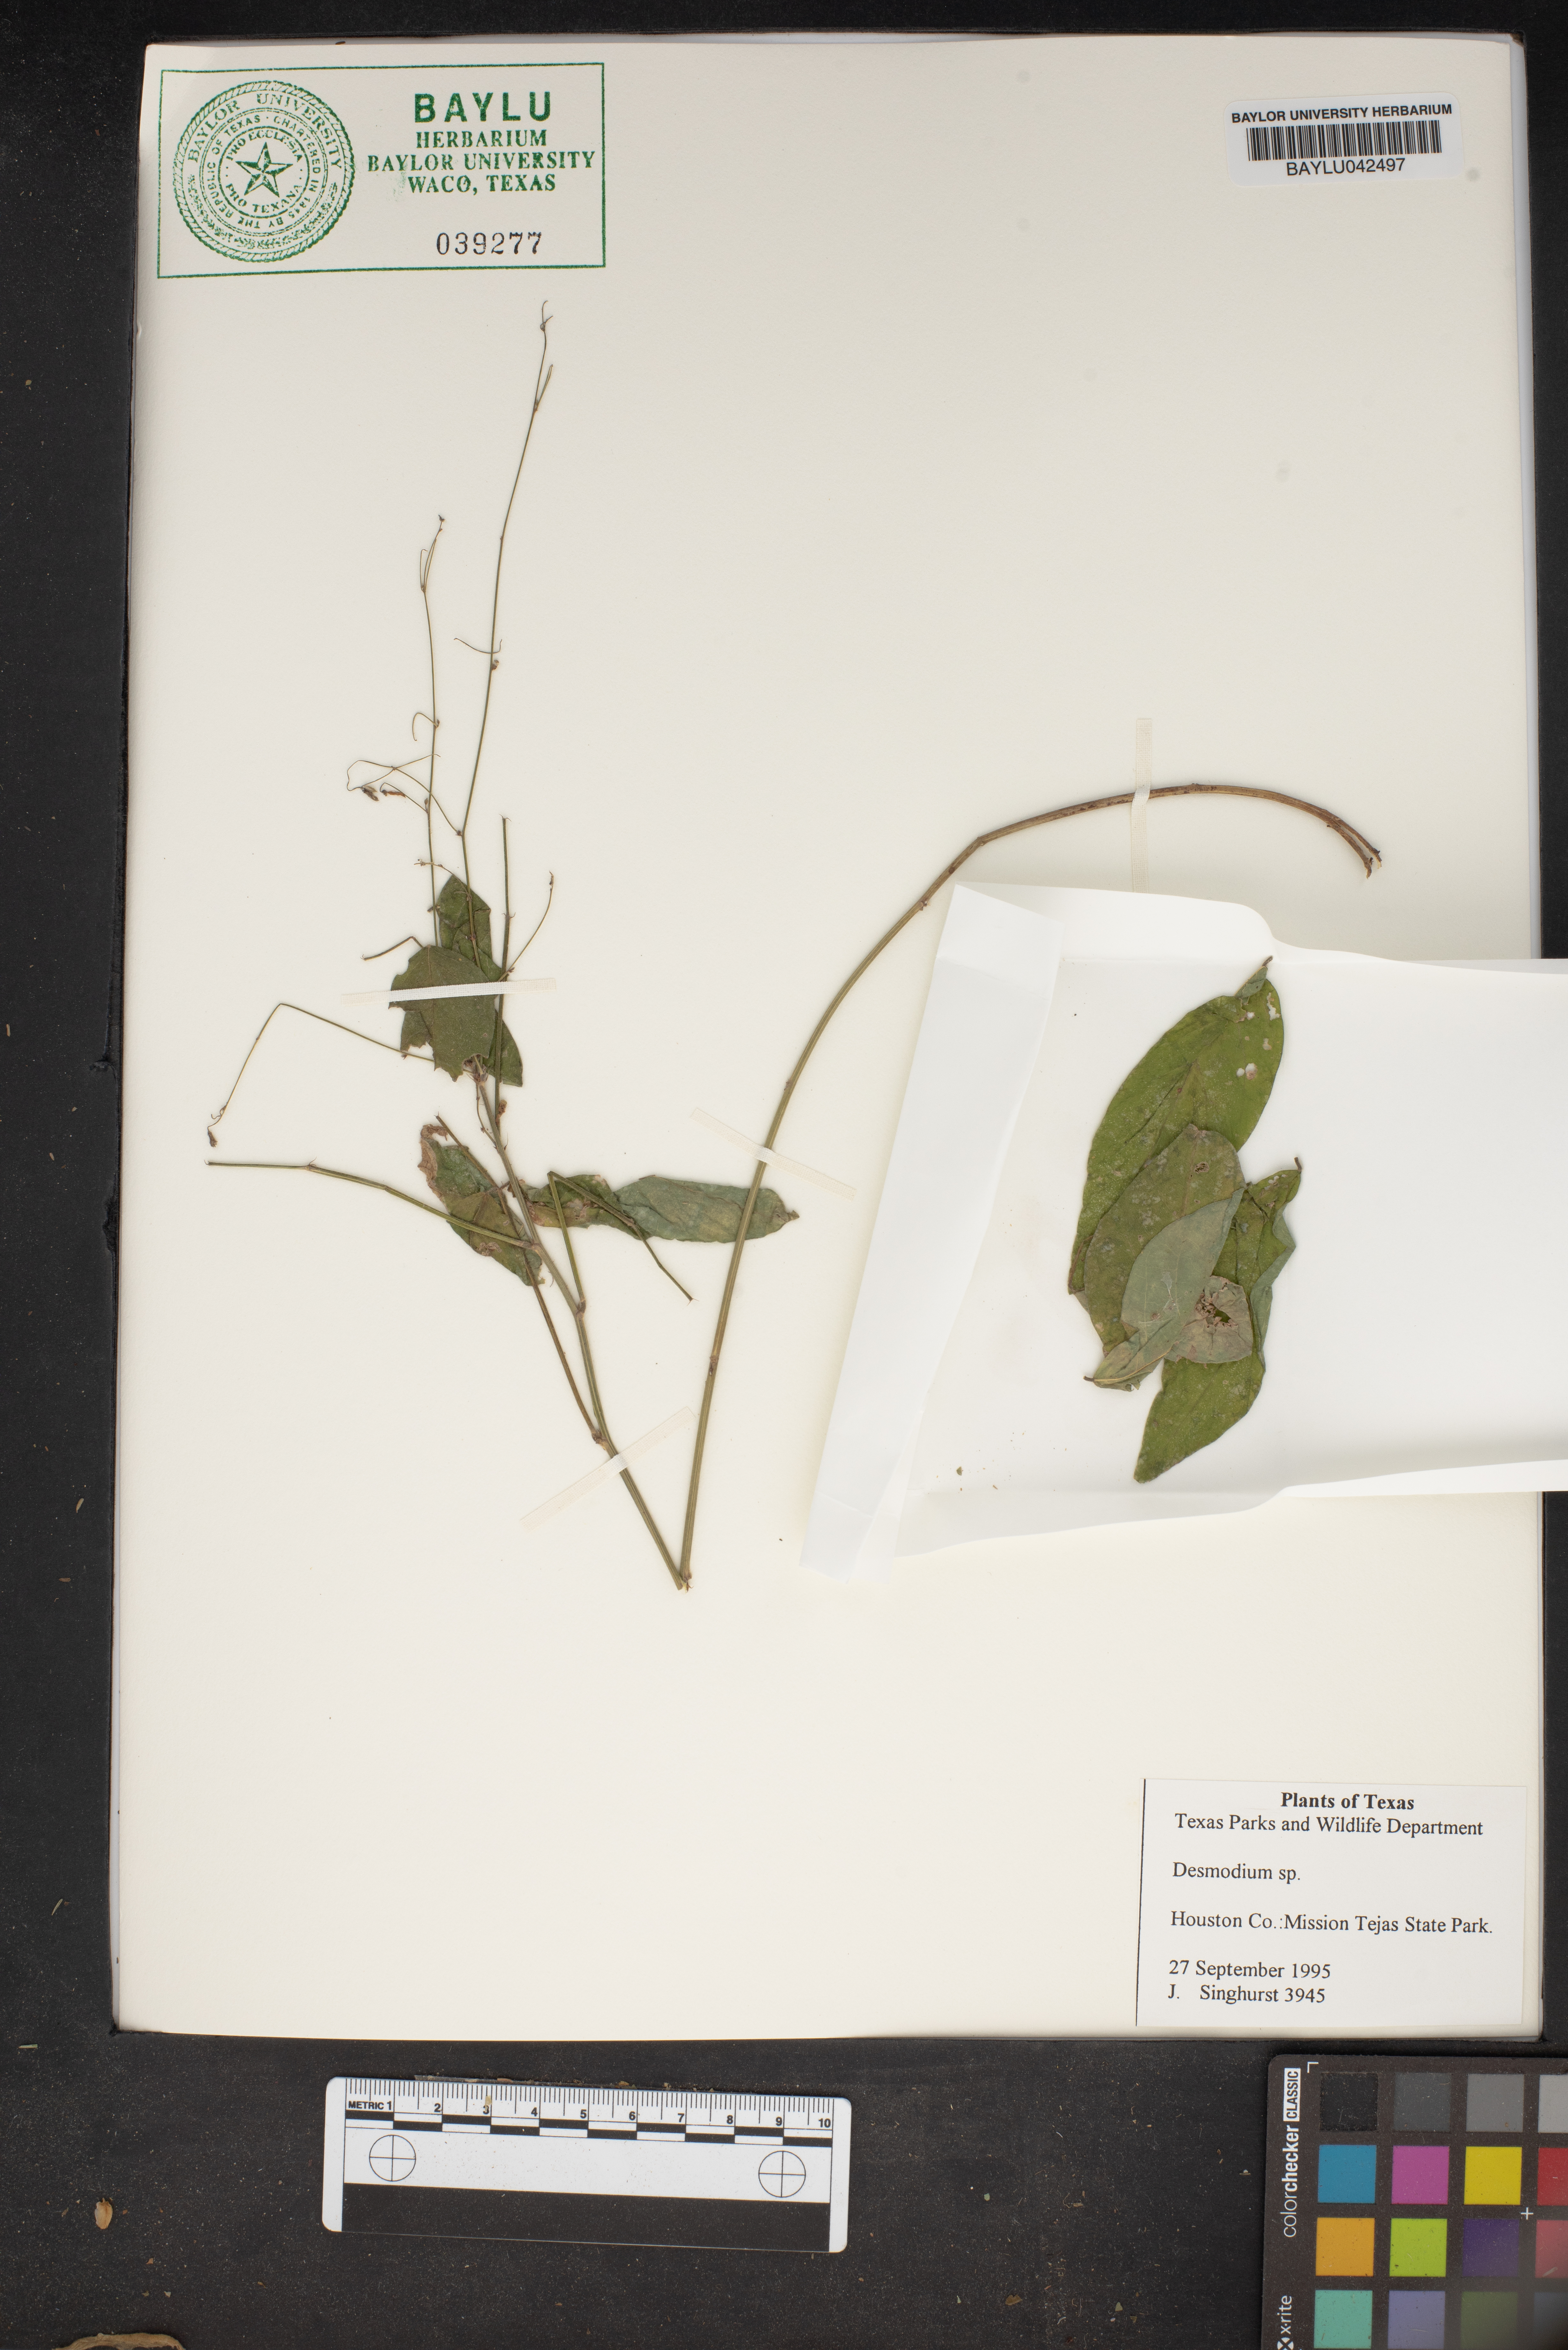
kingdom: Plantae
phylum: Tracheophyta
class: Magnoliopsida
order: Fabales
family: Fabaceae
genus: Desmodium
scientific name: Desmodium
